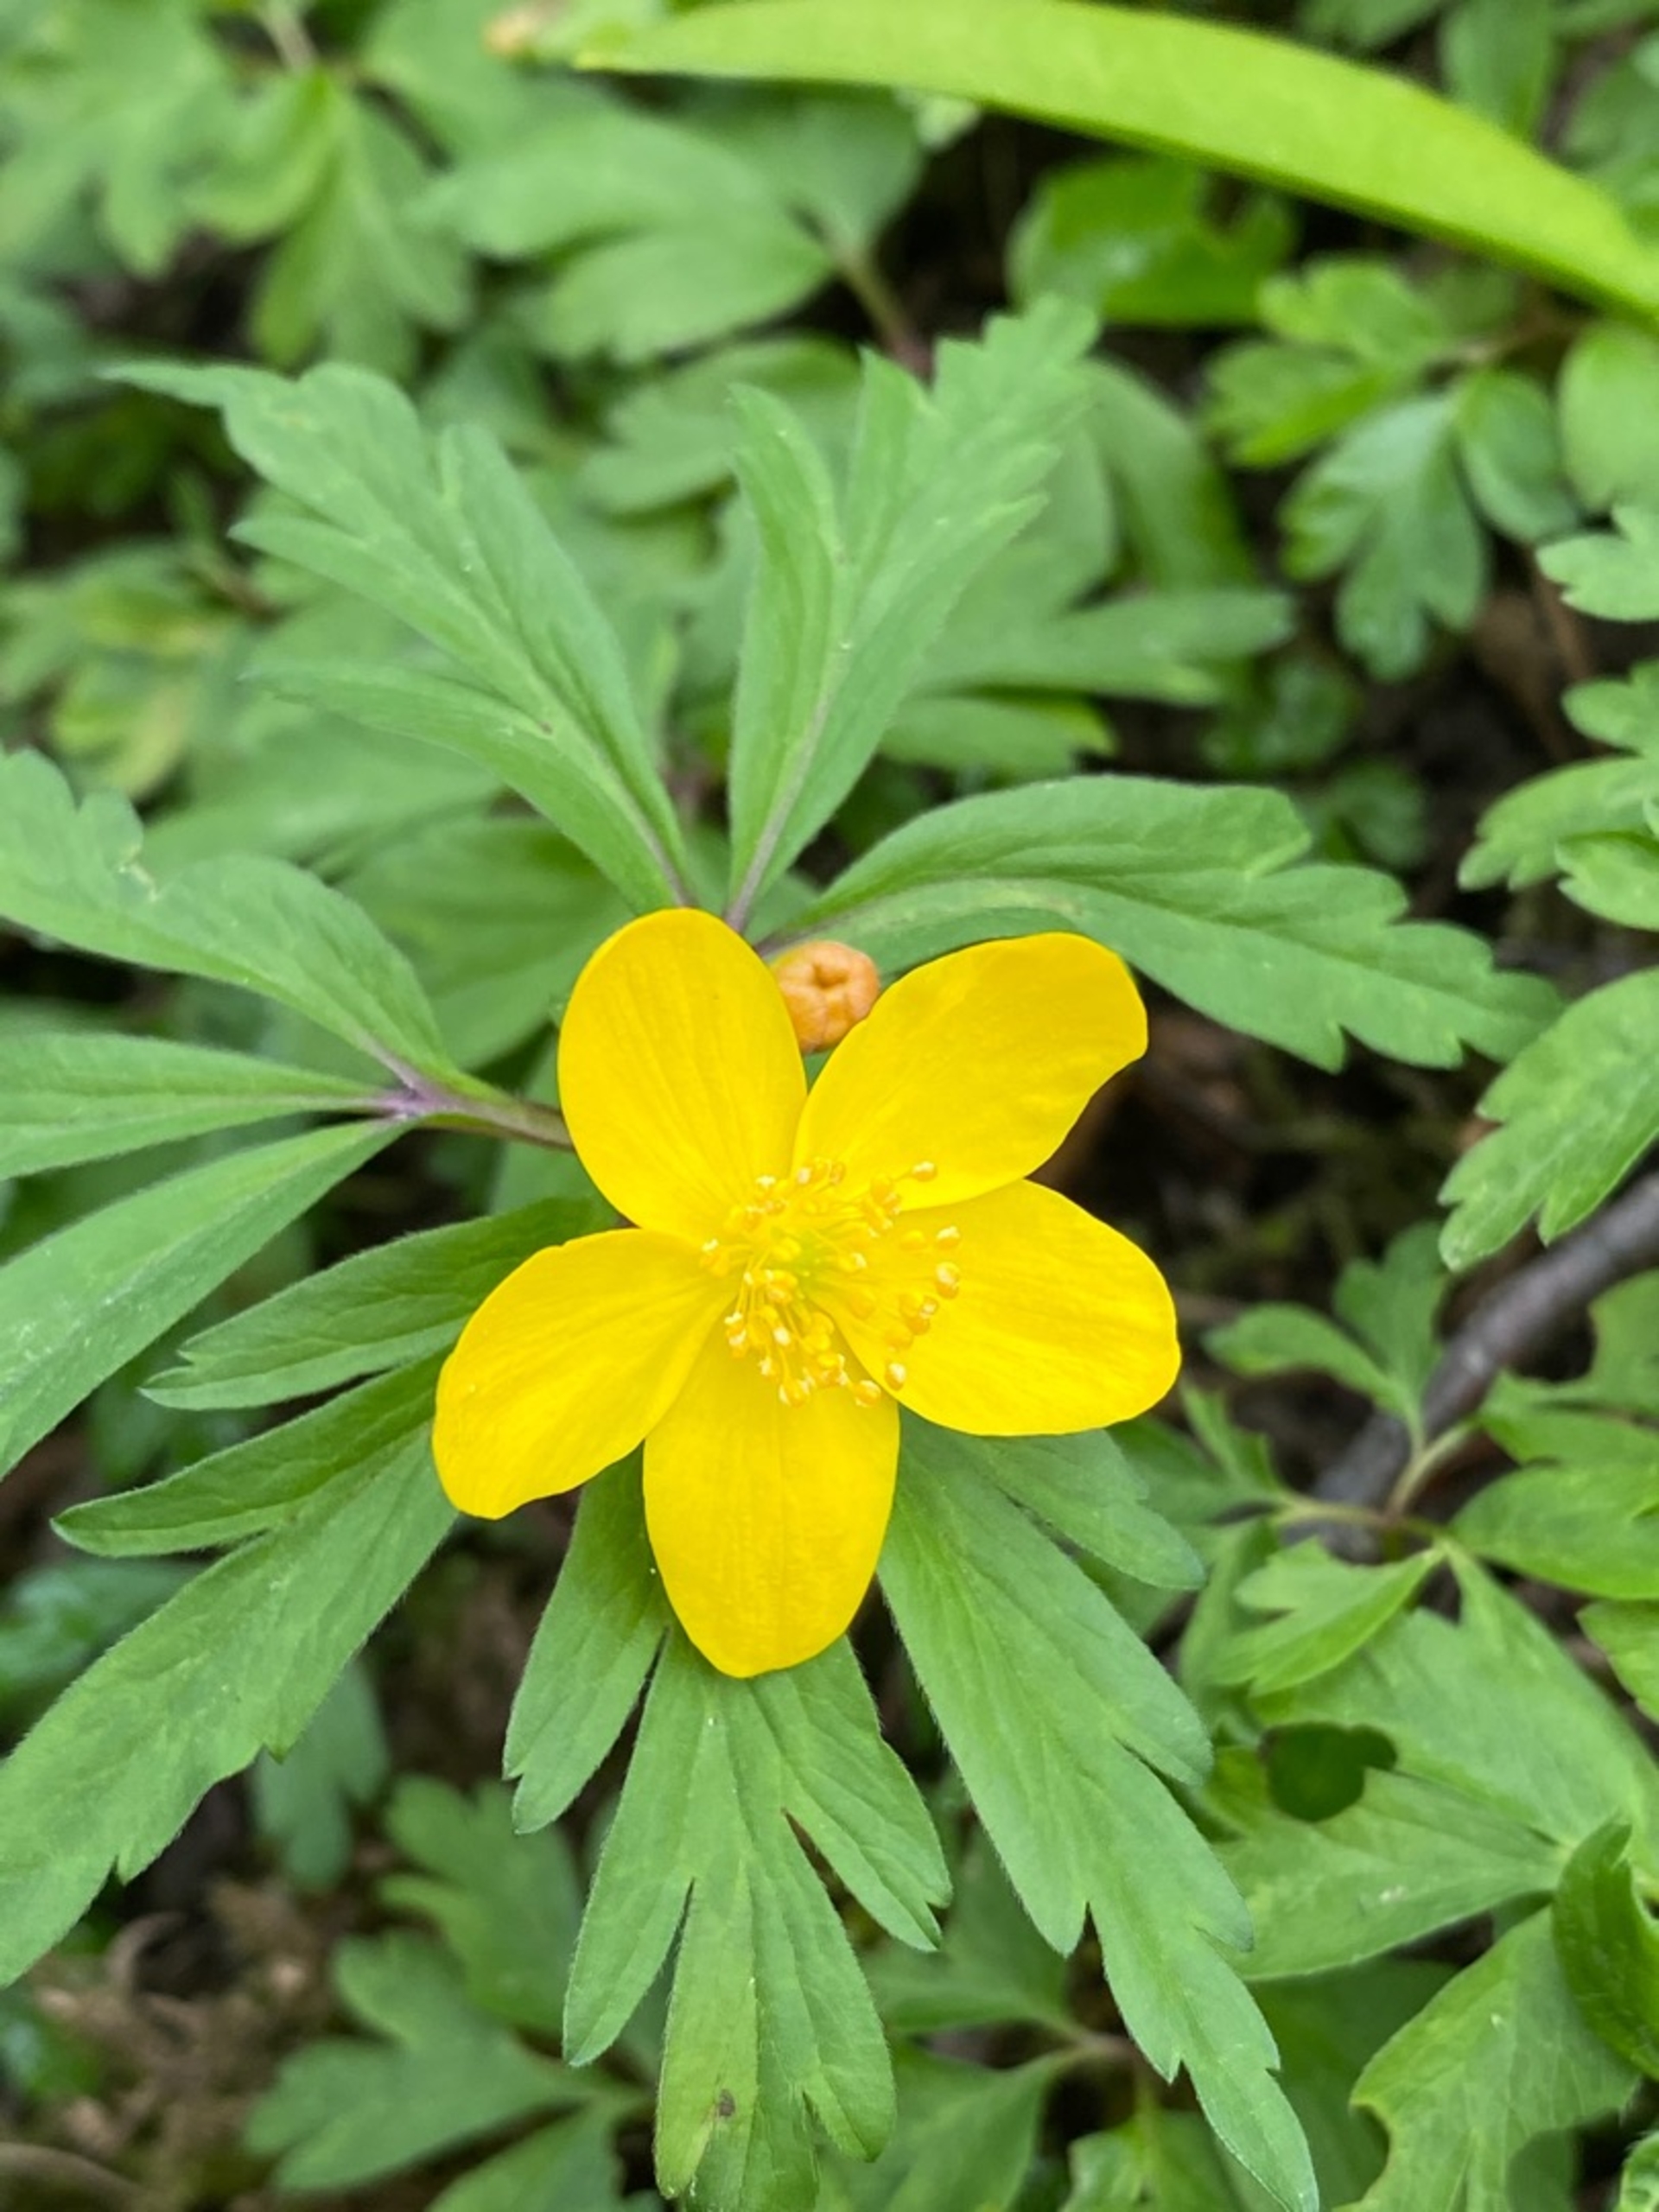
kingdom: Plantae
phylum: Tracheophyta
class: Magnoliopsida
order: Ranunculales
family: Ranunculaceae
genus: Anemone
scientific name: Anemone ranunculoides
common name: Gul anemone
